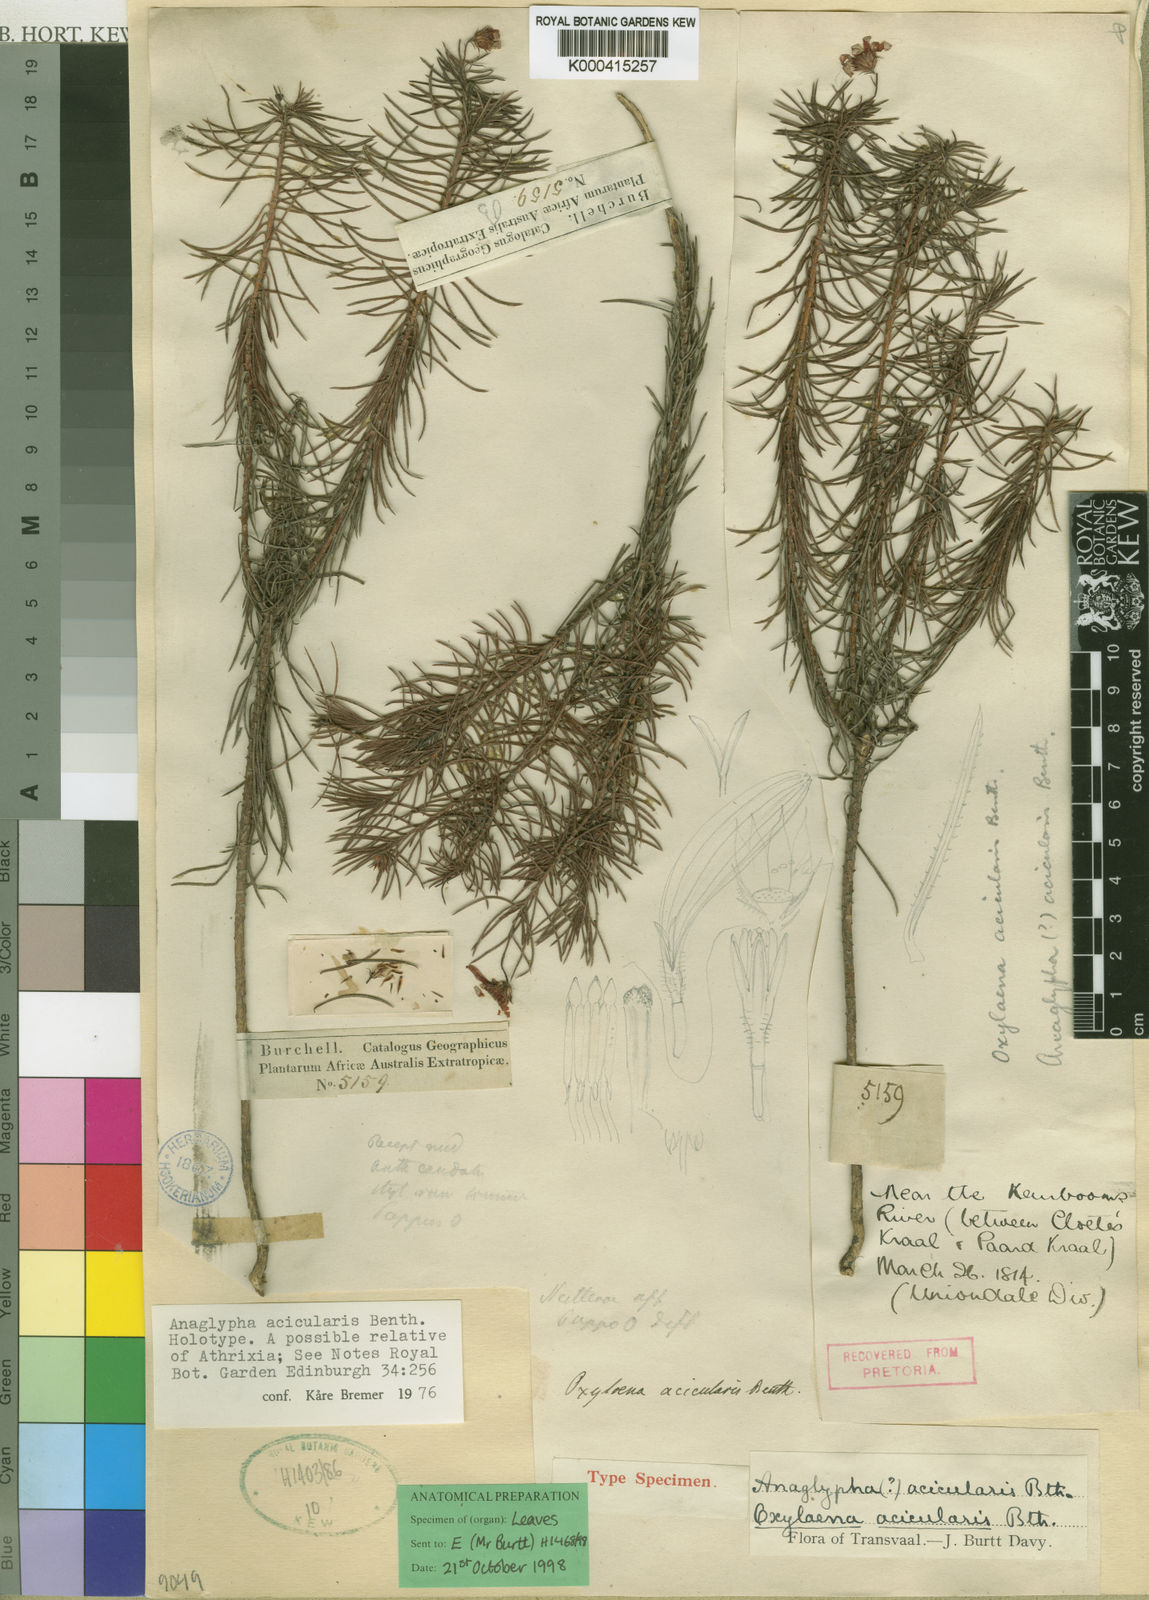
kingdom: Plantae
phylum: Tracheophyta
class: Magnoliopsida
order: Asterales
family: Asteraceae
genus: Oxylaena
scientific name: Oxylaena acicularis
